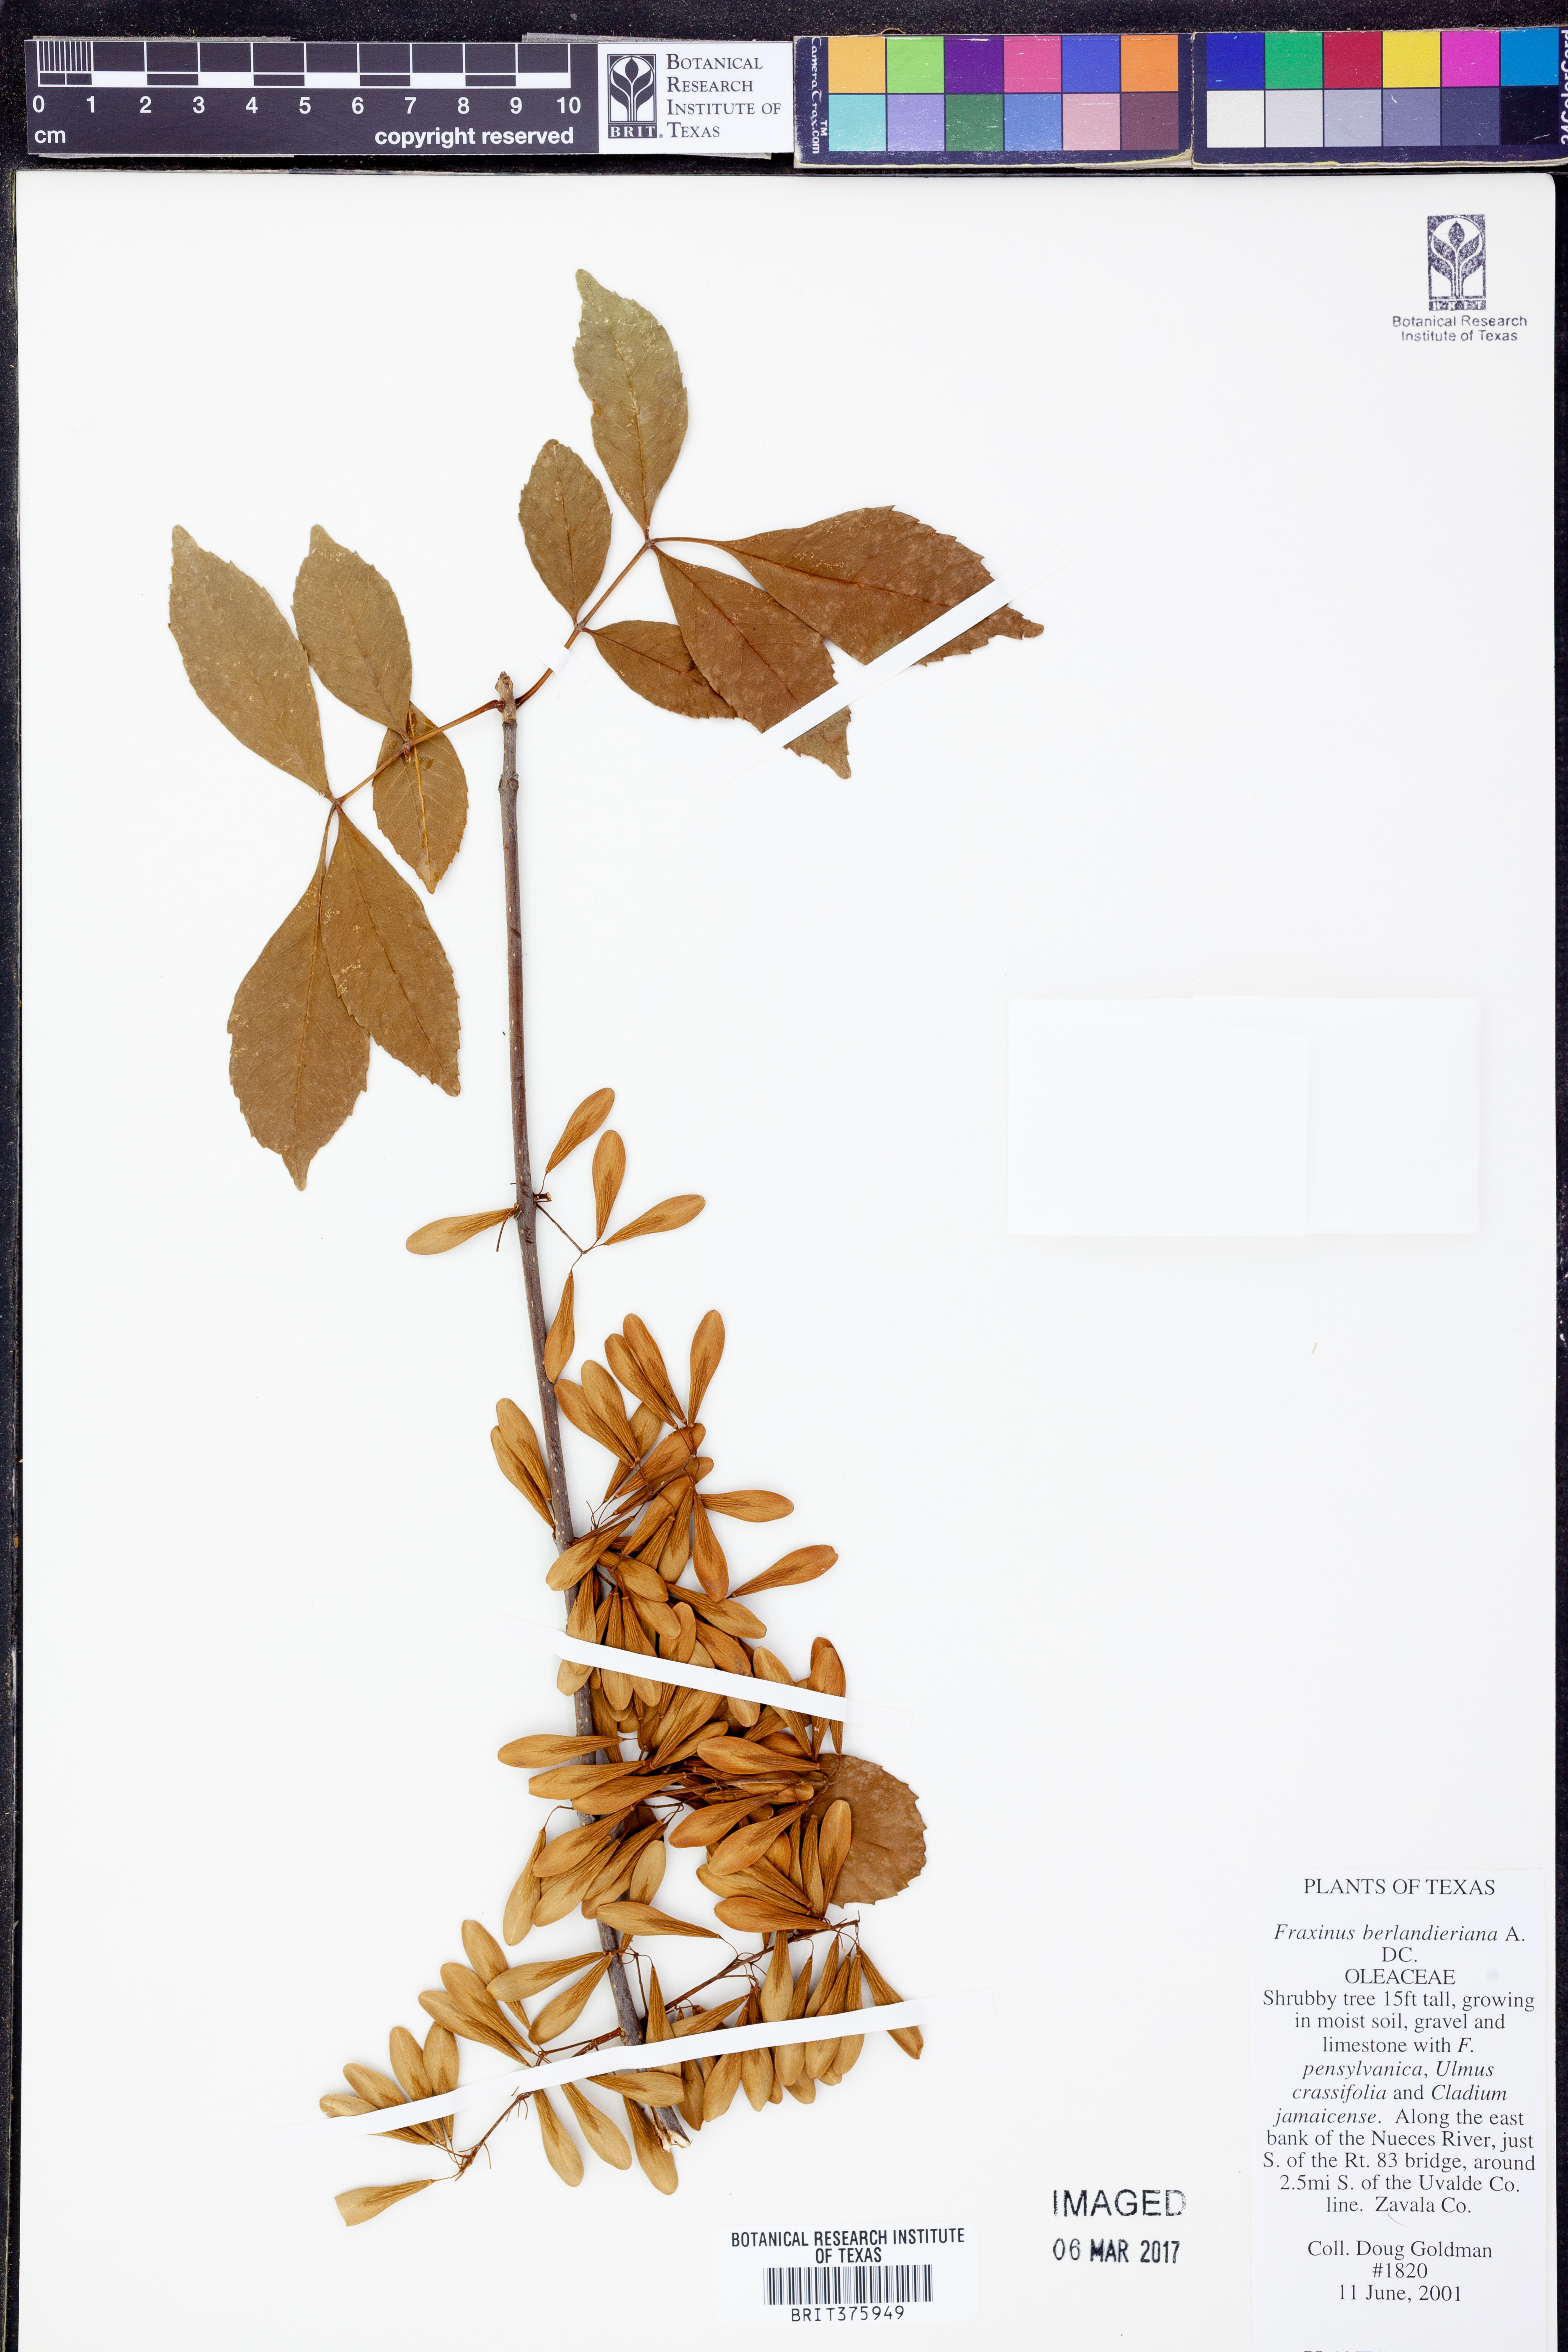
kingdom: Plantae
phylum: Tracheophyta
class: Magnoliopsida
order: Lamiales
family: Oleaceae
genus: Fraxinus
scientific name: Fraxinus berlandieriana
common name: Berlandier ash
